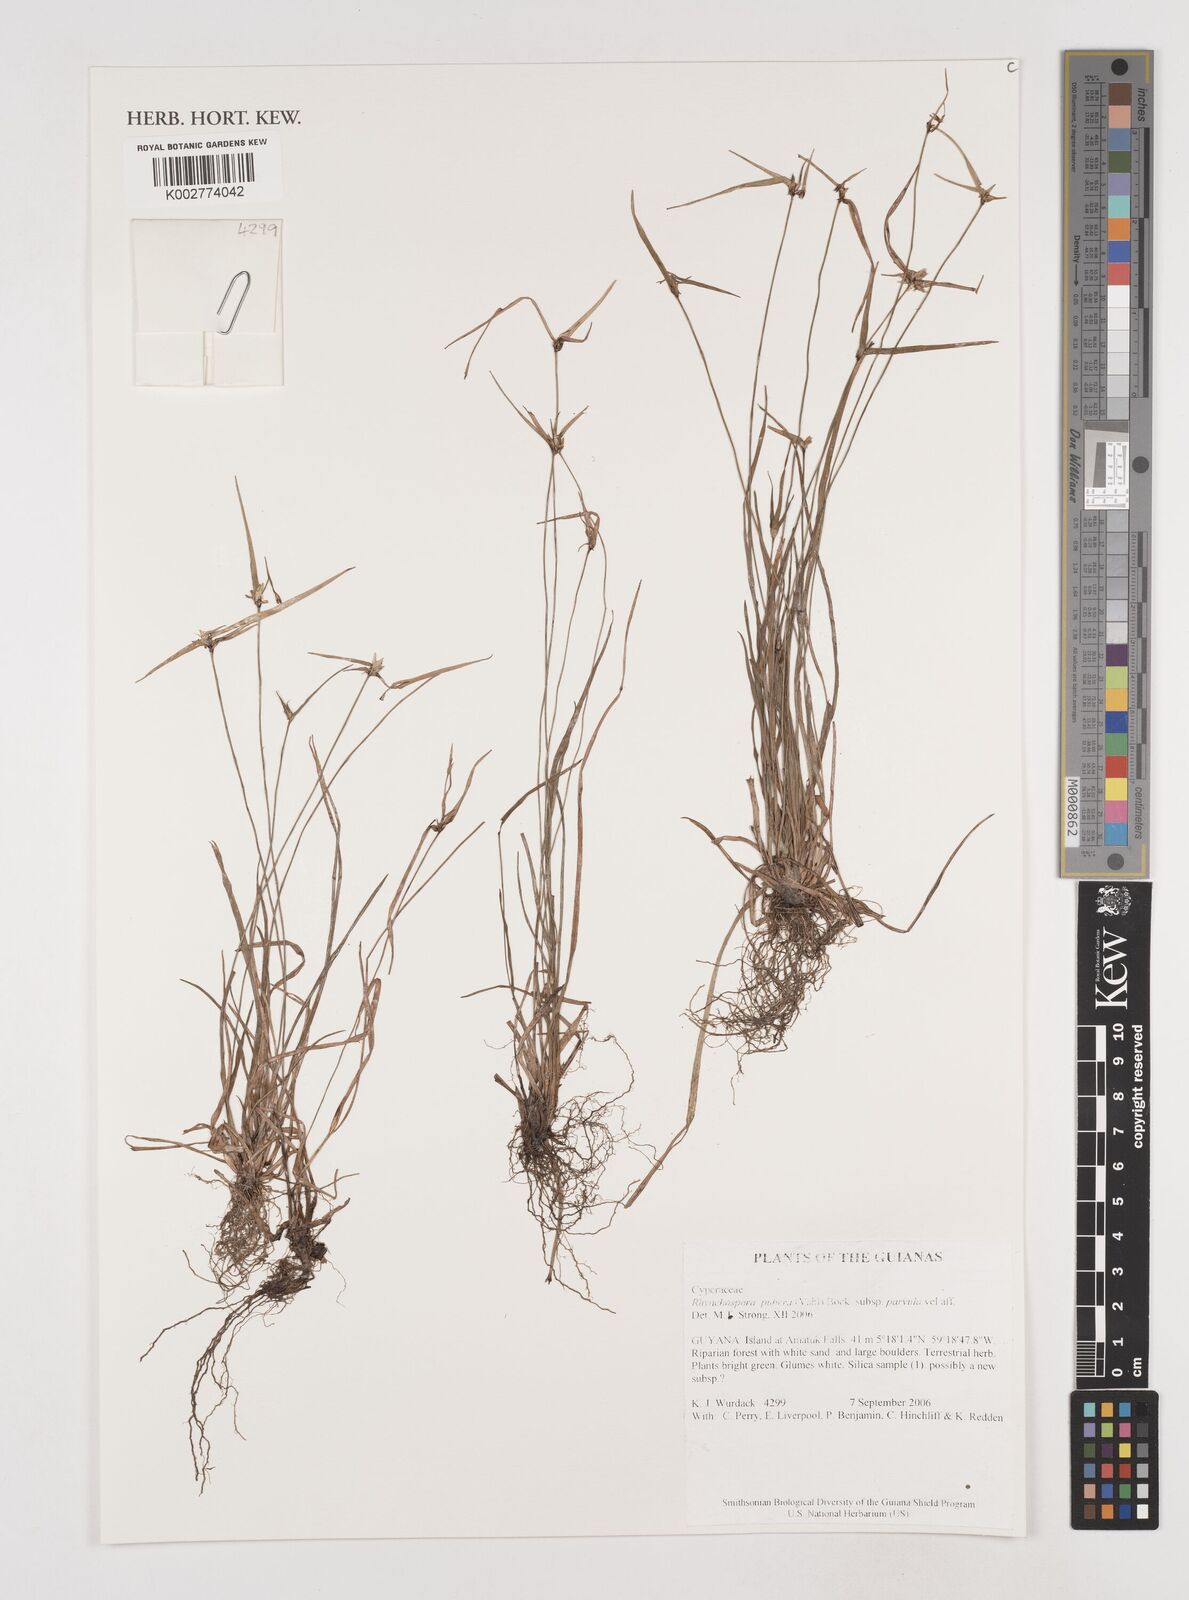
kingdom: Plantae
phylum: Tracheophyta
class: Liliopsida
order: Poales
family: Cyperaceae
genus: Rhynchospora
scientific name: Rhynchospora pubera
